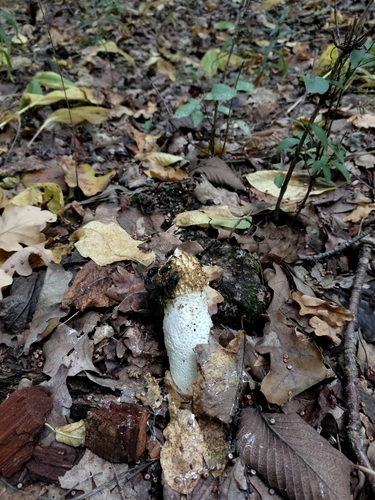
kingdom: Fungi
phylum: Basidiomycota
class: Agaricomycetes
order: Phallales
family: Phallaceae
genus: Phallus
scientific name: Phallus impudicus
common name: Common stinkhorn
